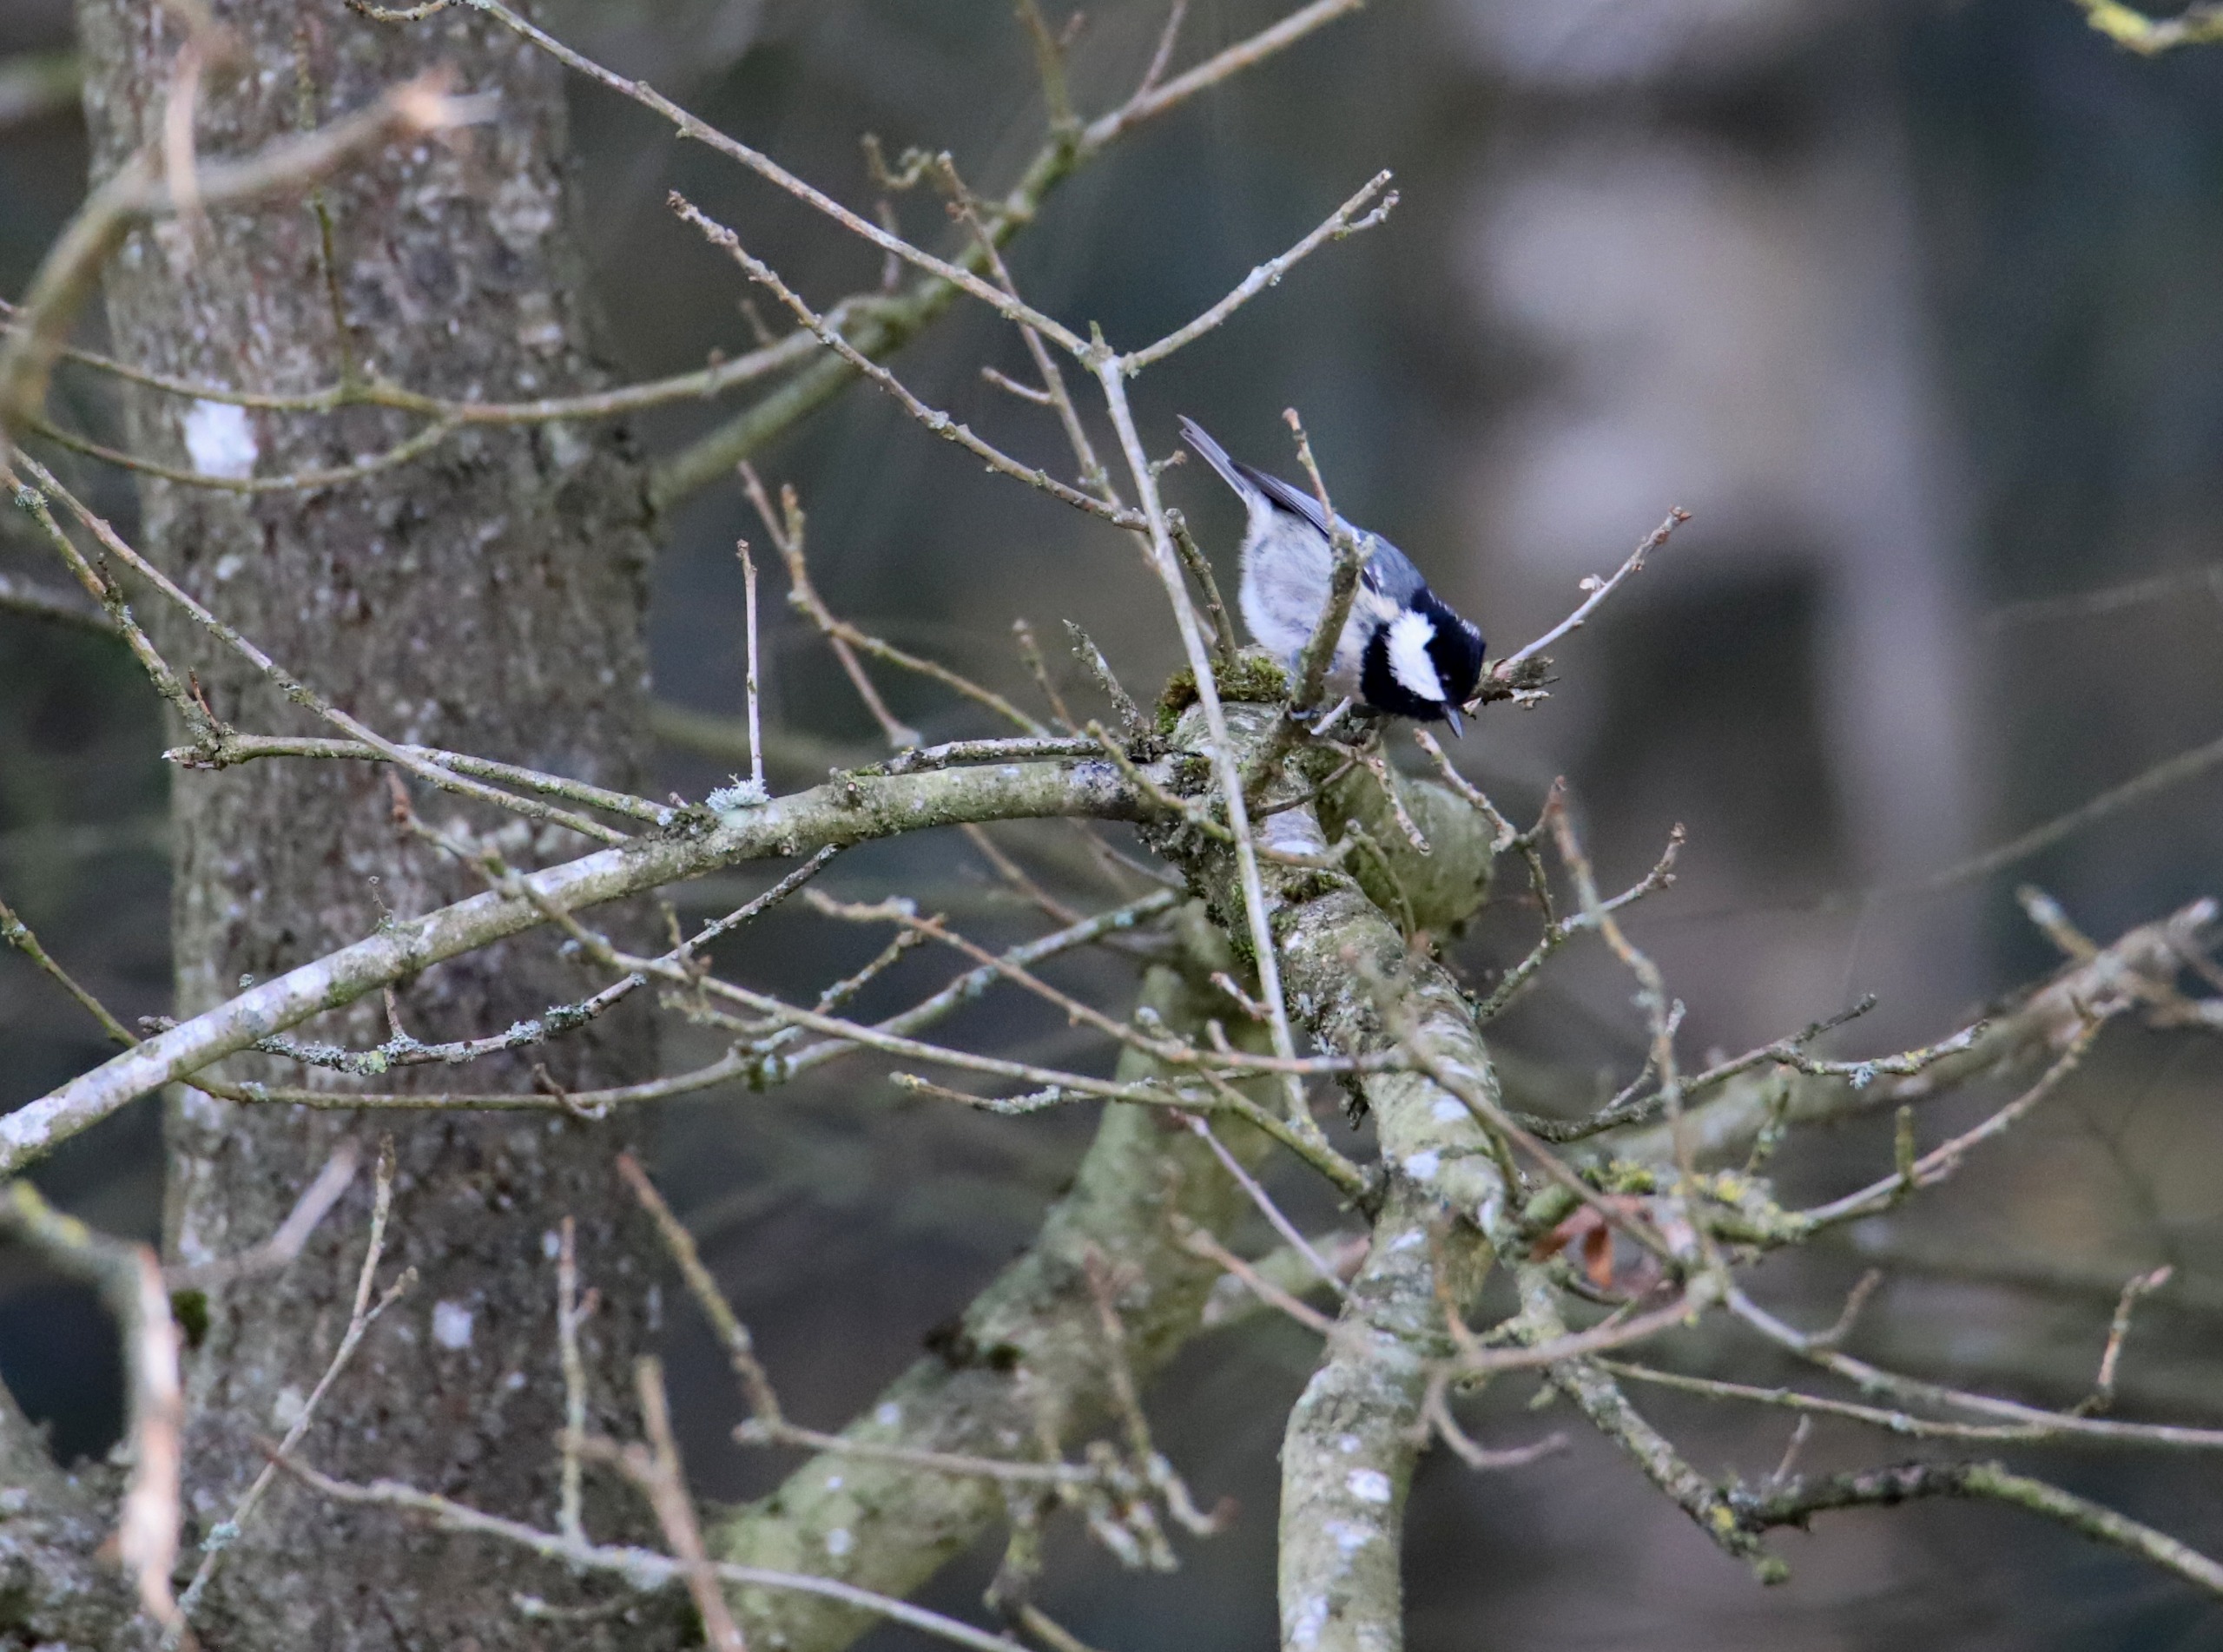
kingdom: Animalia
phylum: Chordata
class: Aves
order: Passeriformes
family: Paridae
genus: Periparus
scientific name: Periparus ater
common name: Sortmejse
